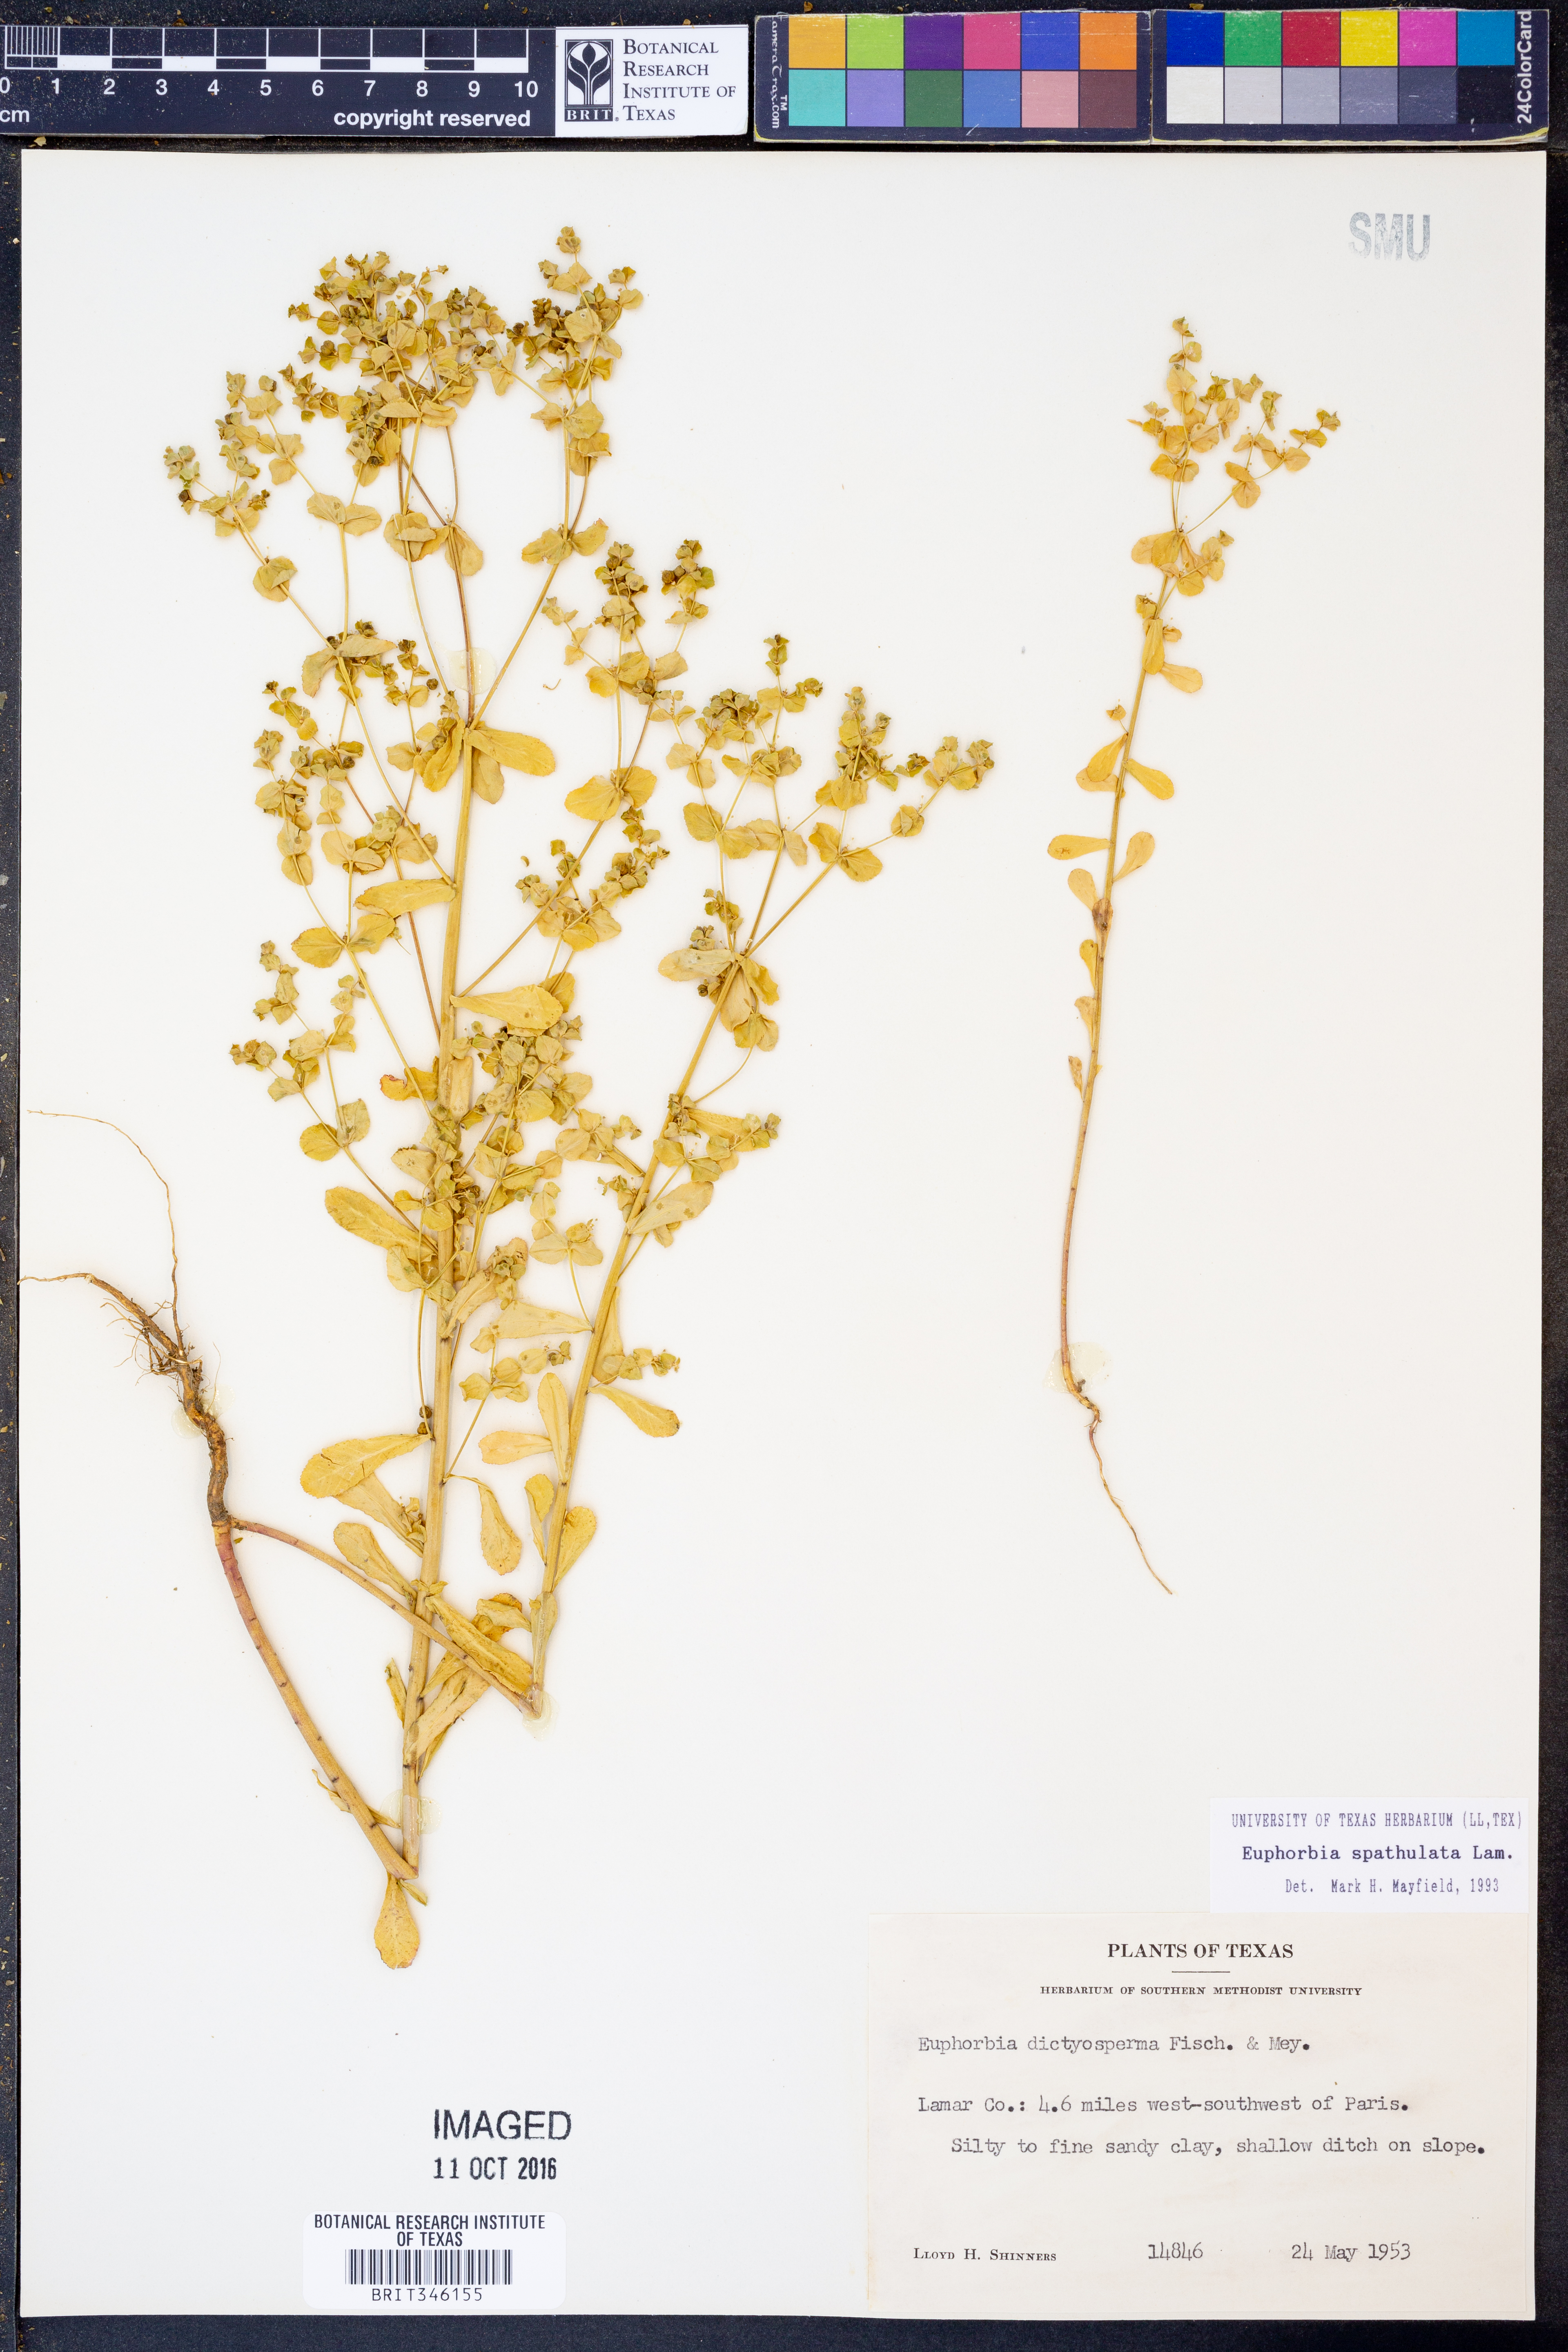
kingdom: Plantae
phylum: Tracheophyta
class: Magnoliopsida
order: Malpighiales
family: Euphorbiaceae
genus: Euphorbia
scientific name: Euphorbia spathulata
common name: Blunt spurge
